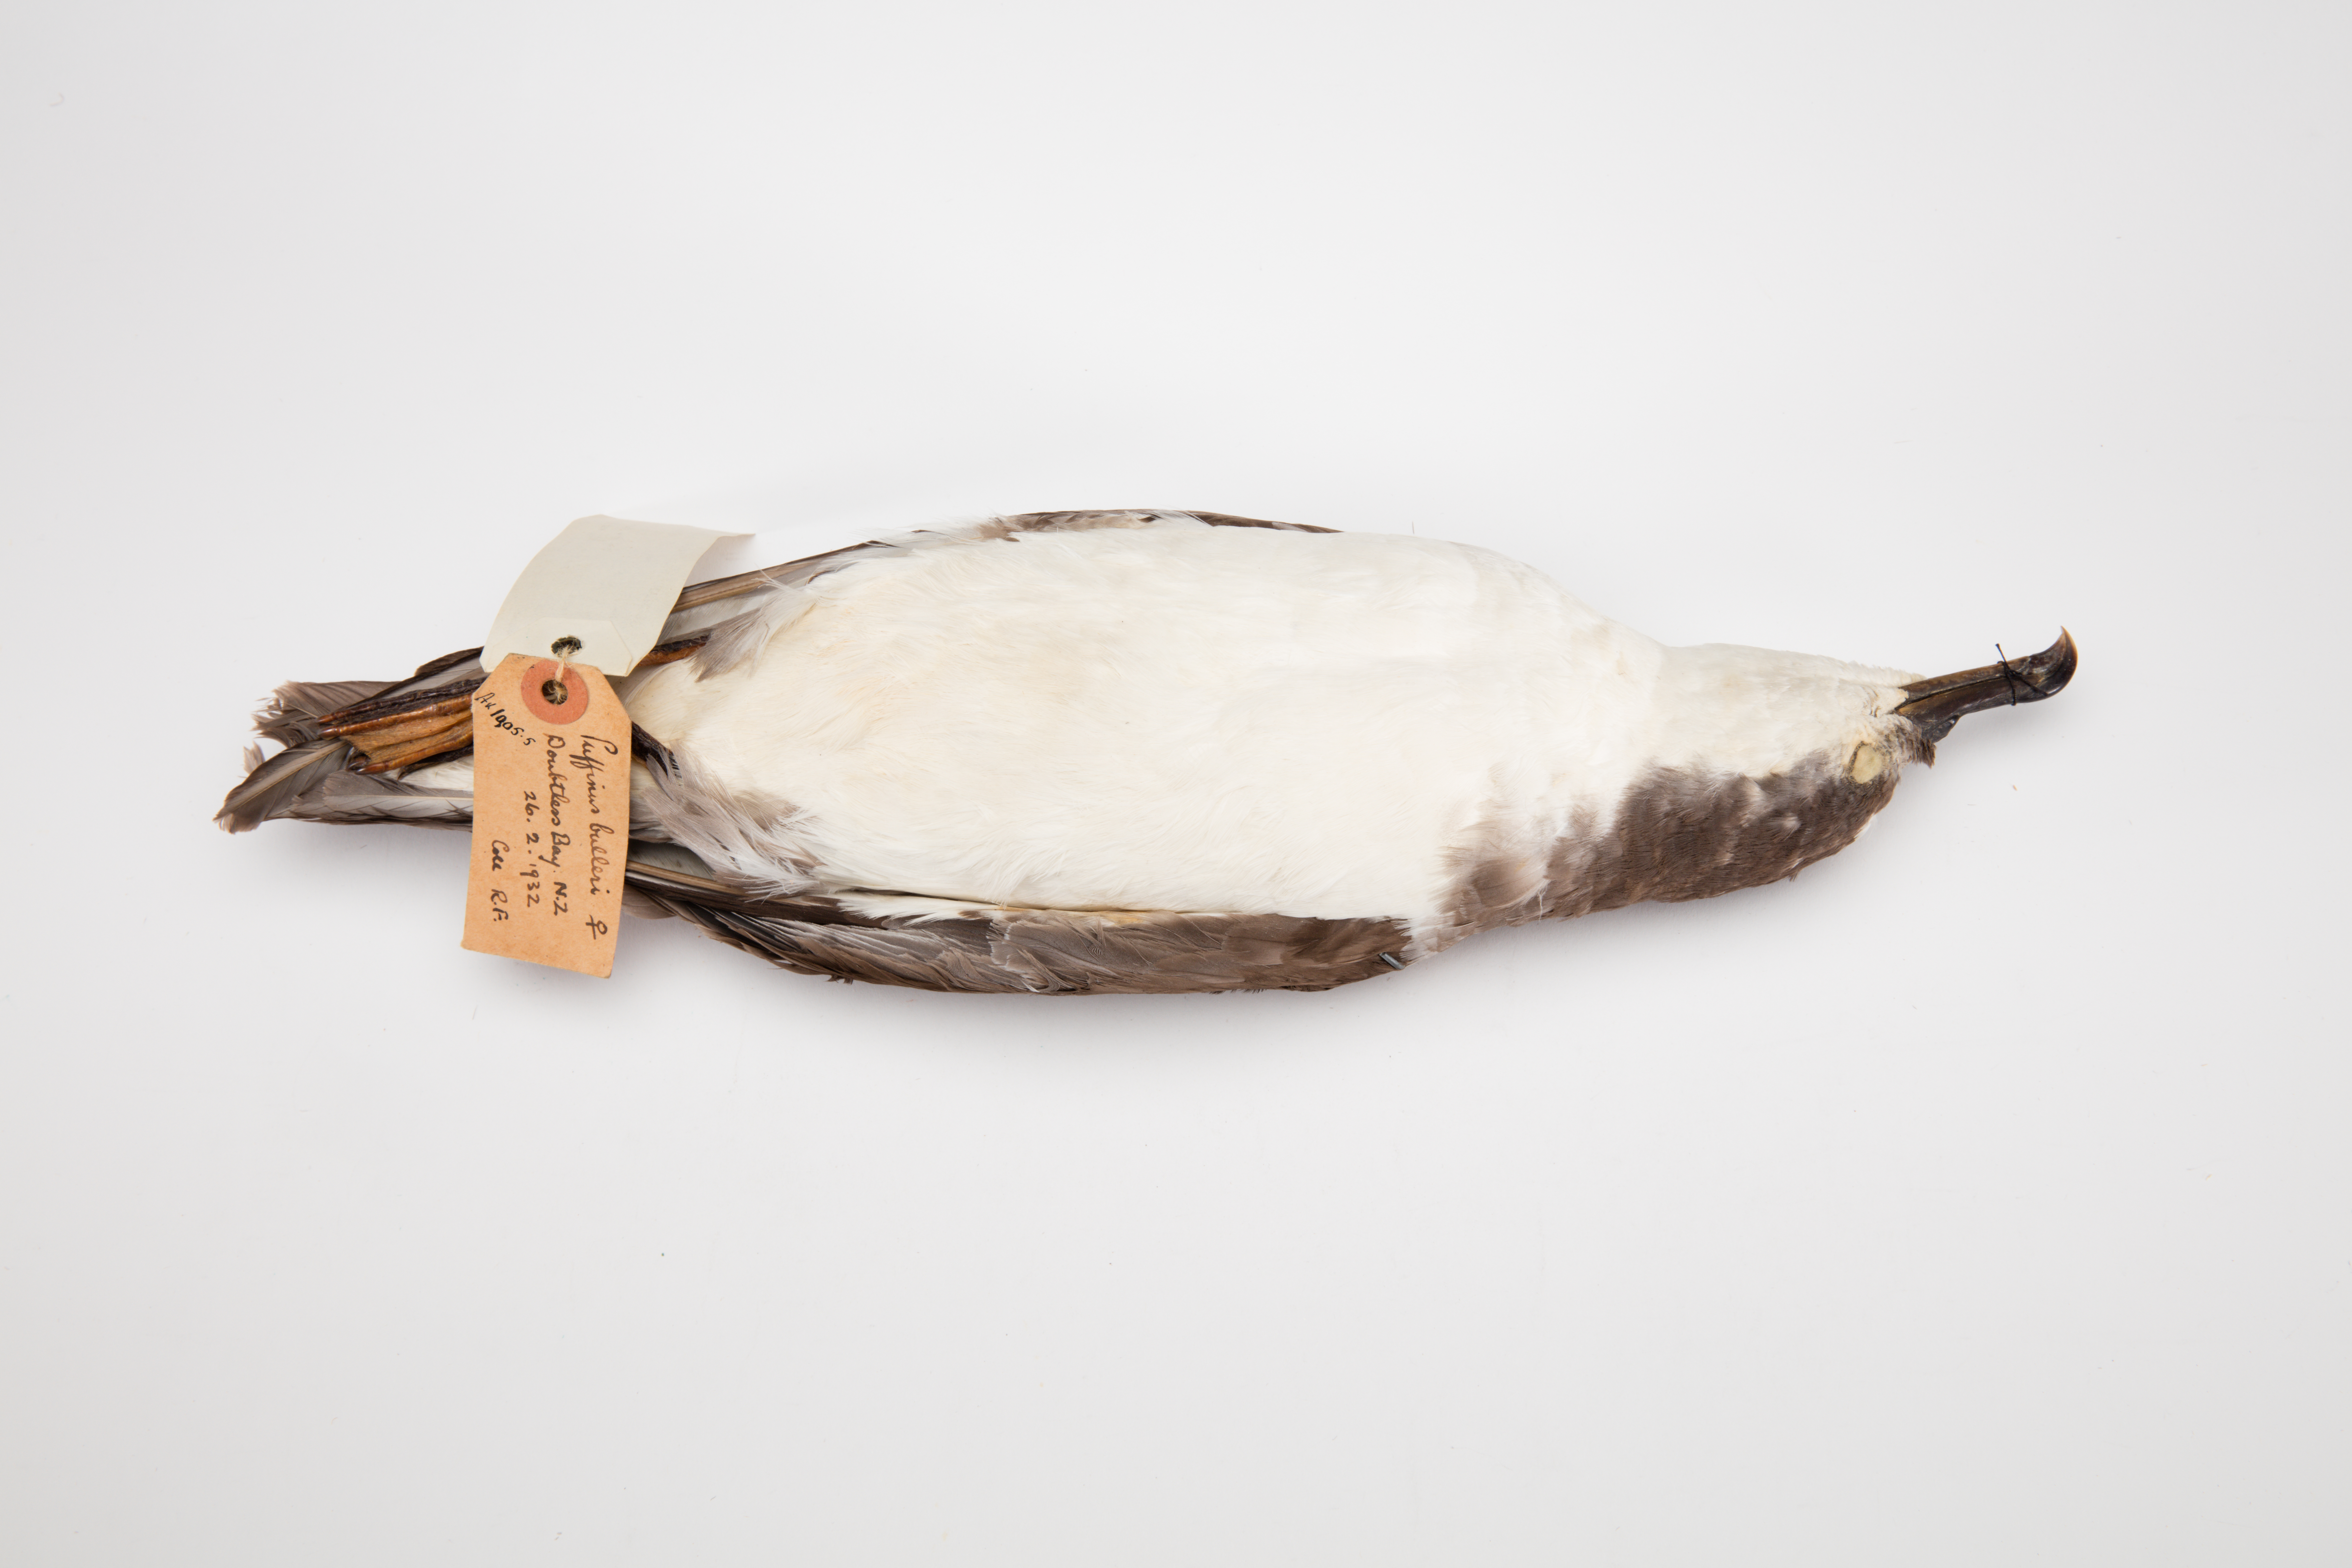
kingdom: Animalia
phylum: Chordata
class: Aves
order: Procellariiformes
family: Procellariidae
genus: Ardenna
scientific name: Ardenna
